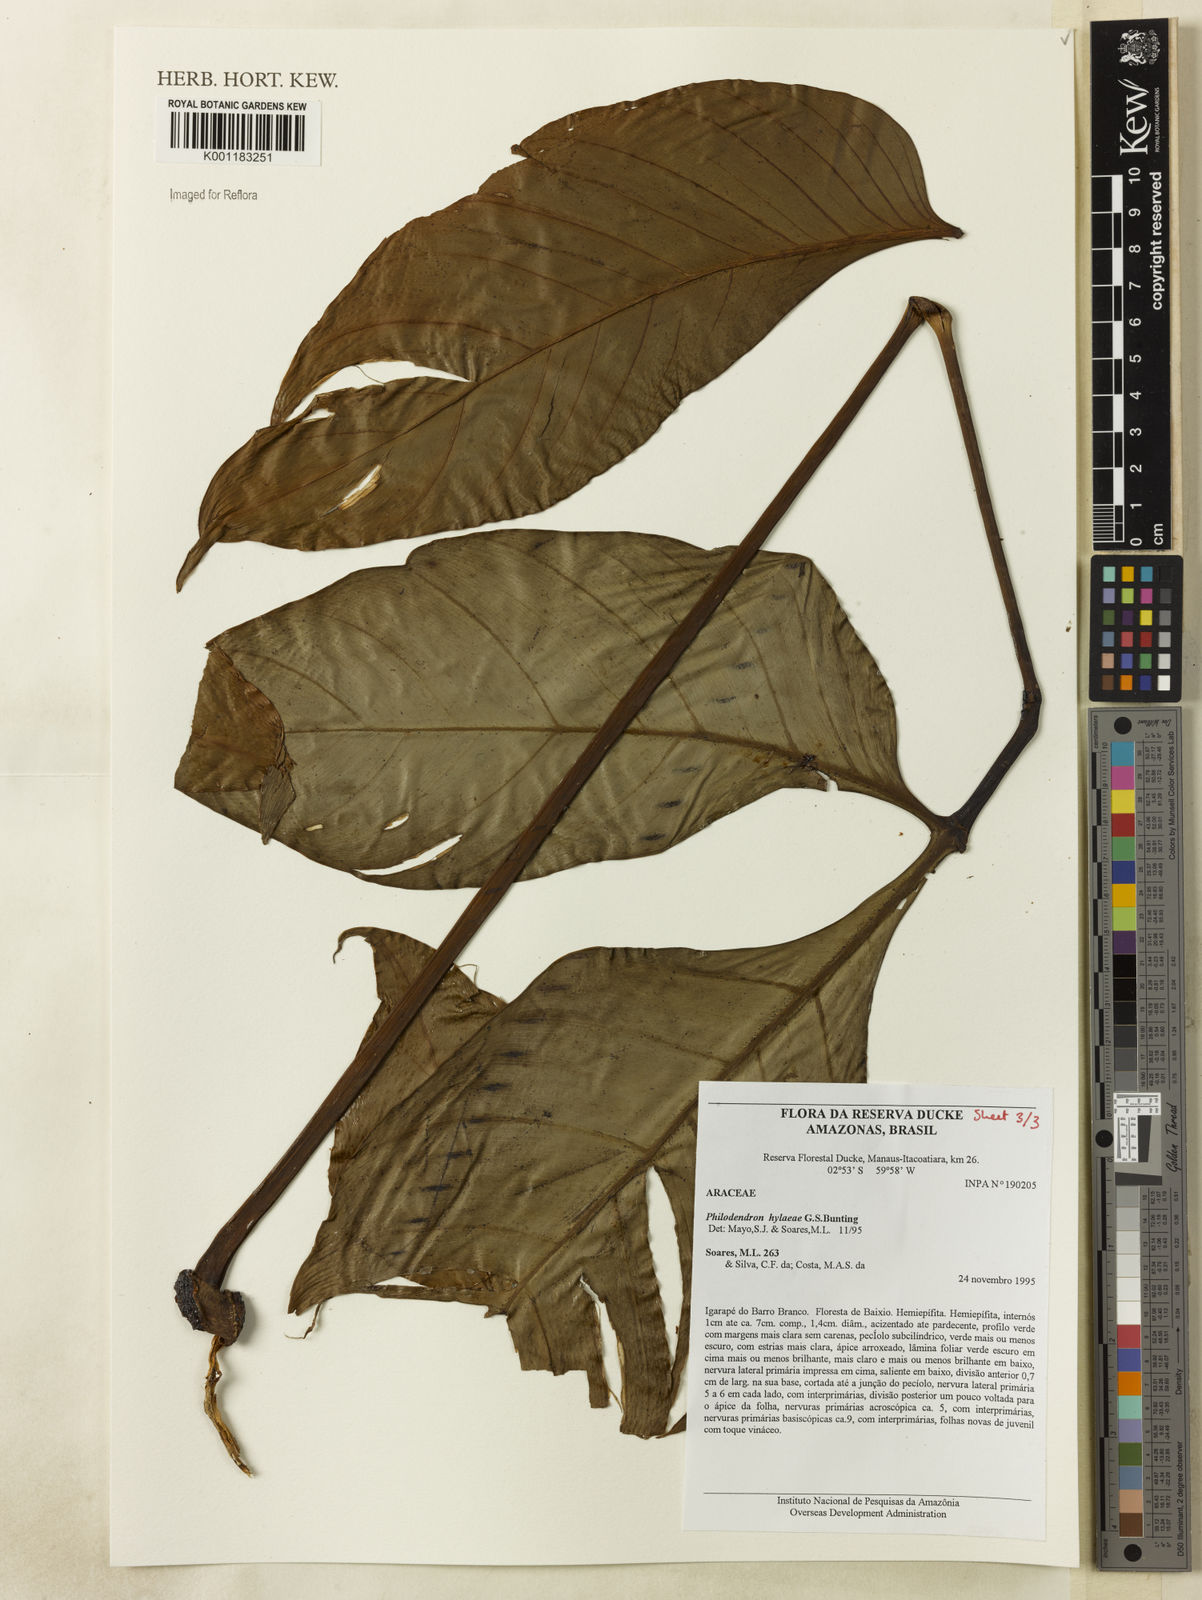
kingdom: Plantae
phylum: Tracheophyta
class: Liliopsida
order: Alismatales
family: Araceae
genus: Philodendron
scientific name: Philodendron hylaeae
